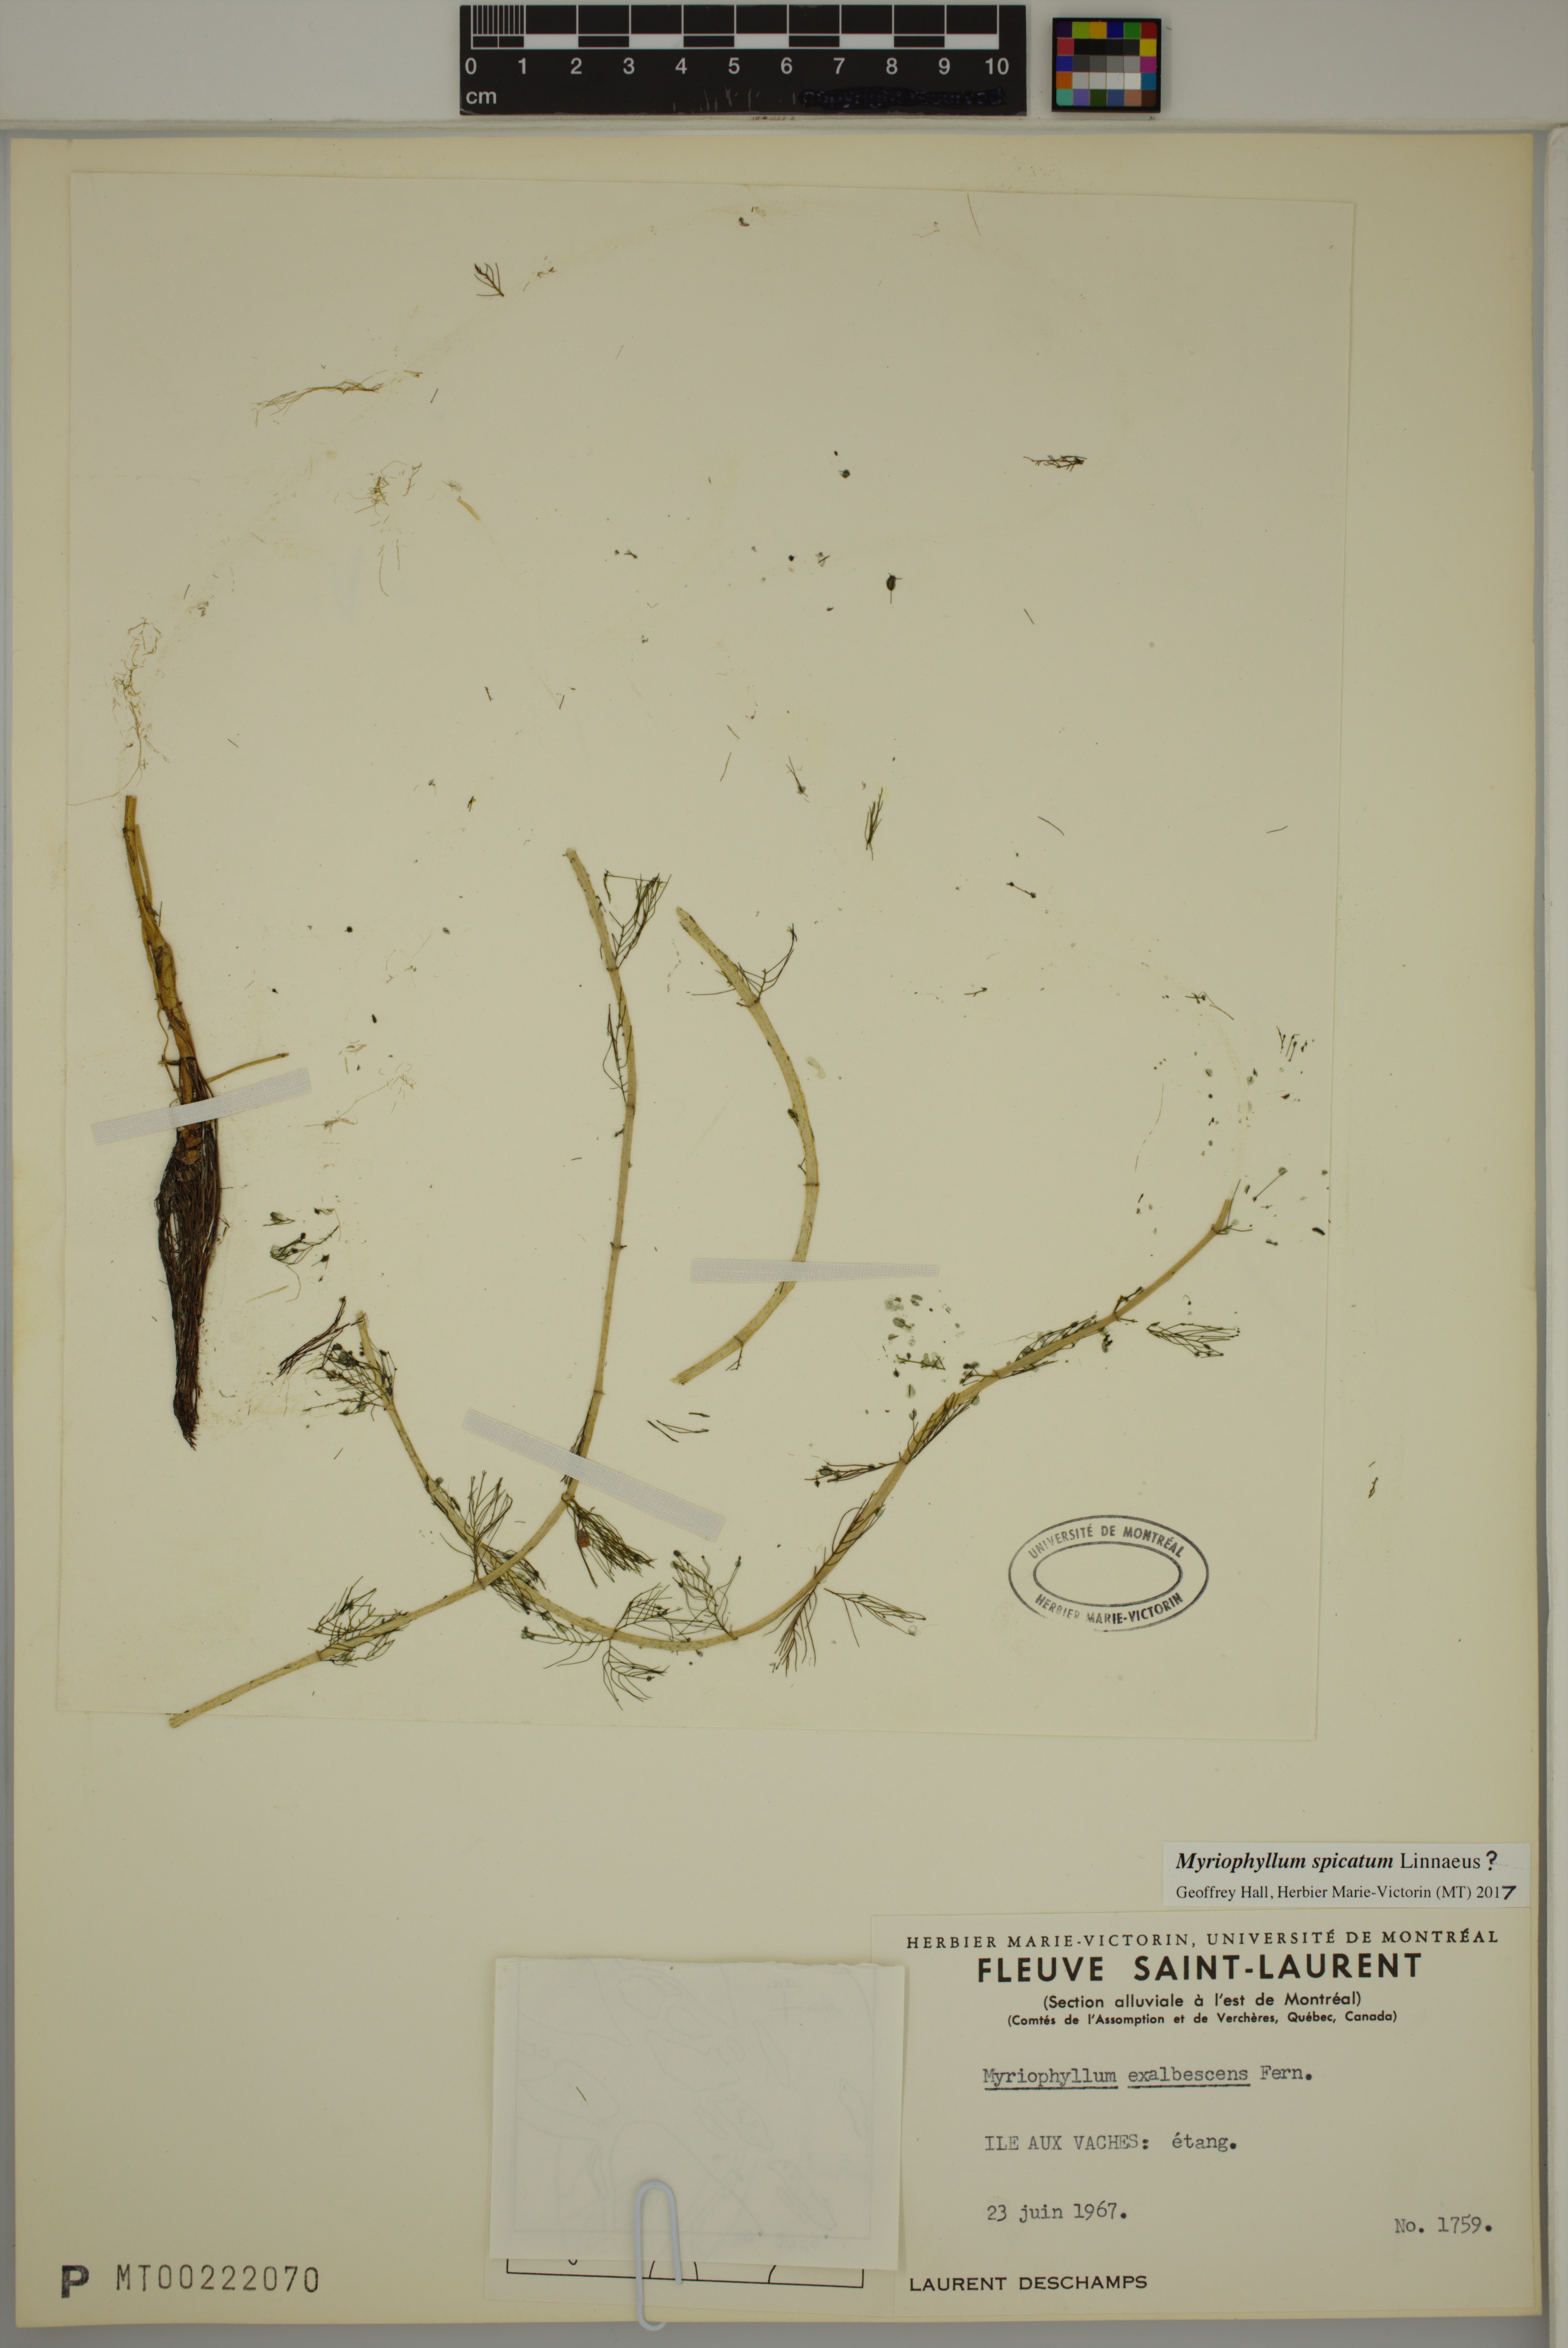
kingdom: Plantae
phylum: Tracheophyta
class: Magnoliopsida
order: Saxifragales
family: Haloragaceae
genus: Myriophyllum
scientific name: Myriophyllum spicatum
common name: Spiked water-milfoil
